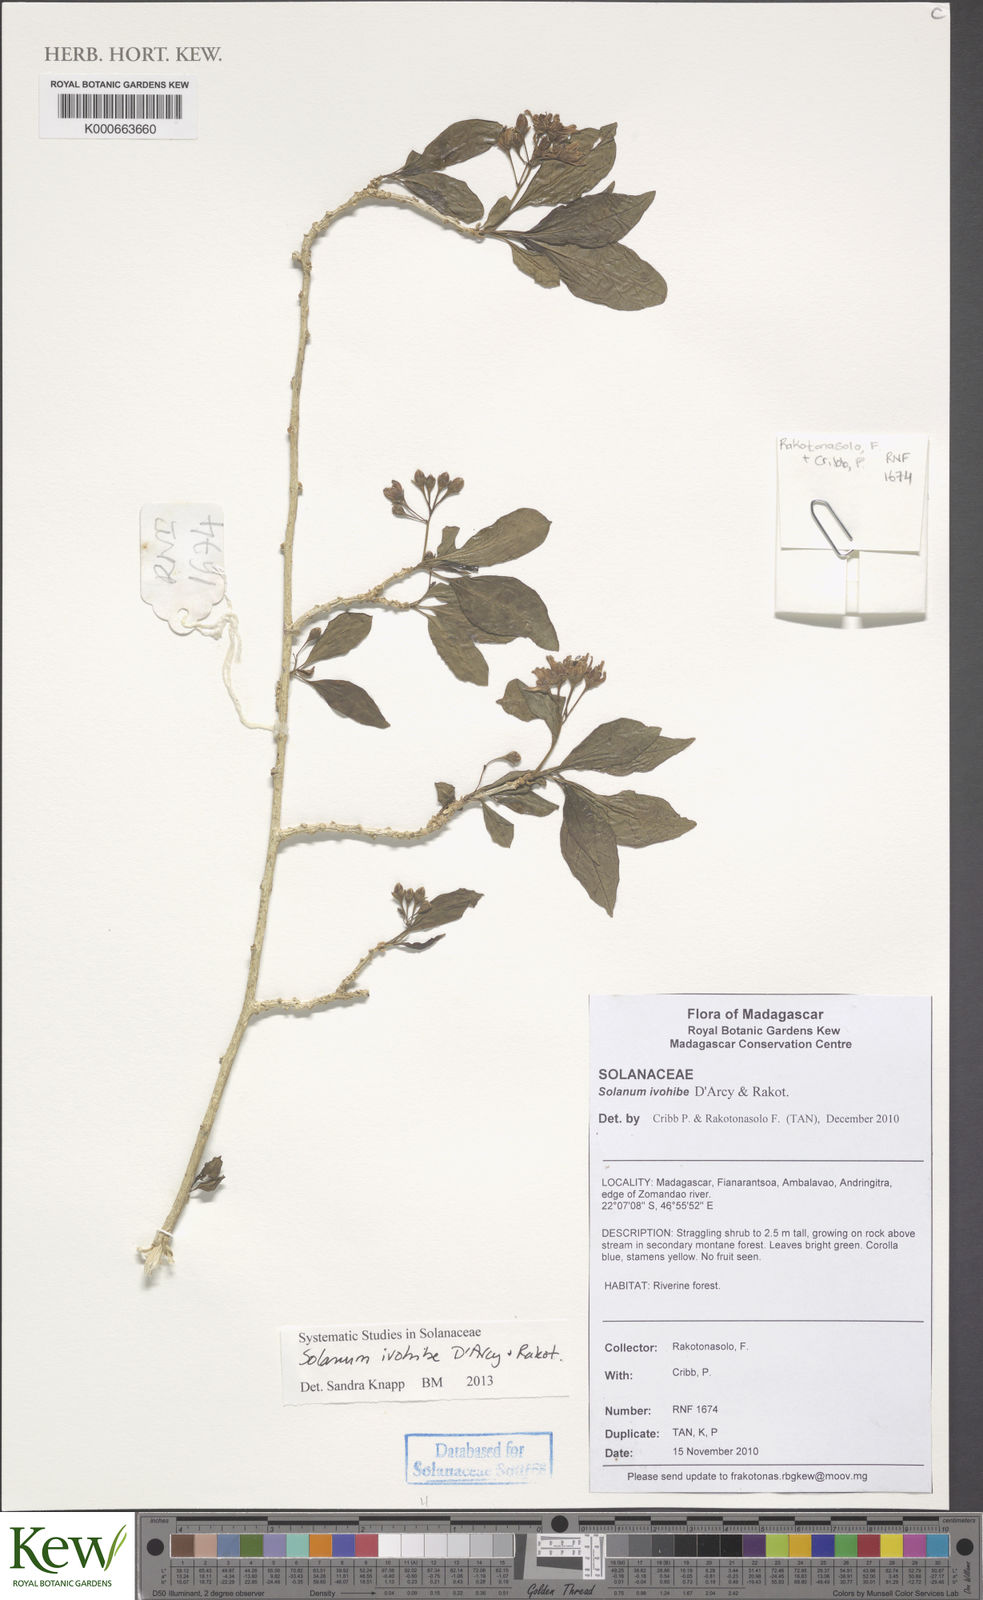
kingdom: Plantae
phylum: Tracheophyta
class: Magnoliopsida
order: Solanales
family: Solanaceae
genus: Solanum
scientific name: Solanum ivohibe
